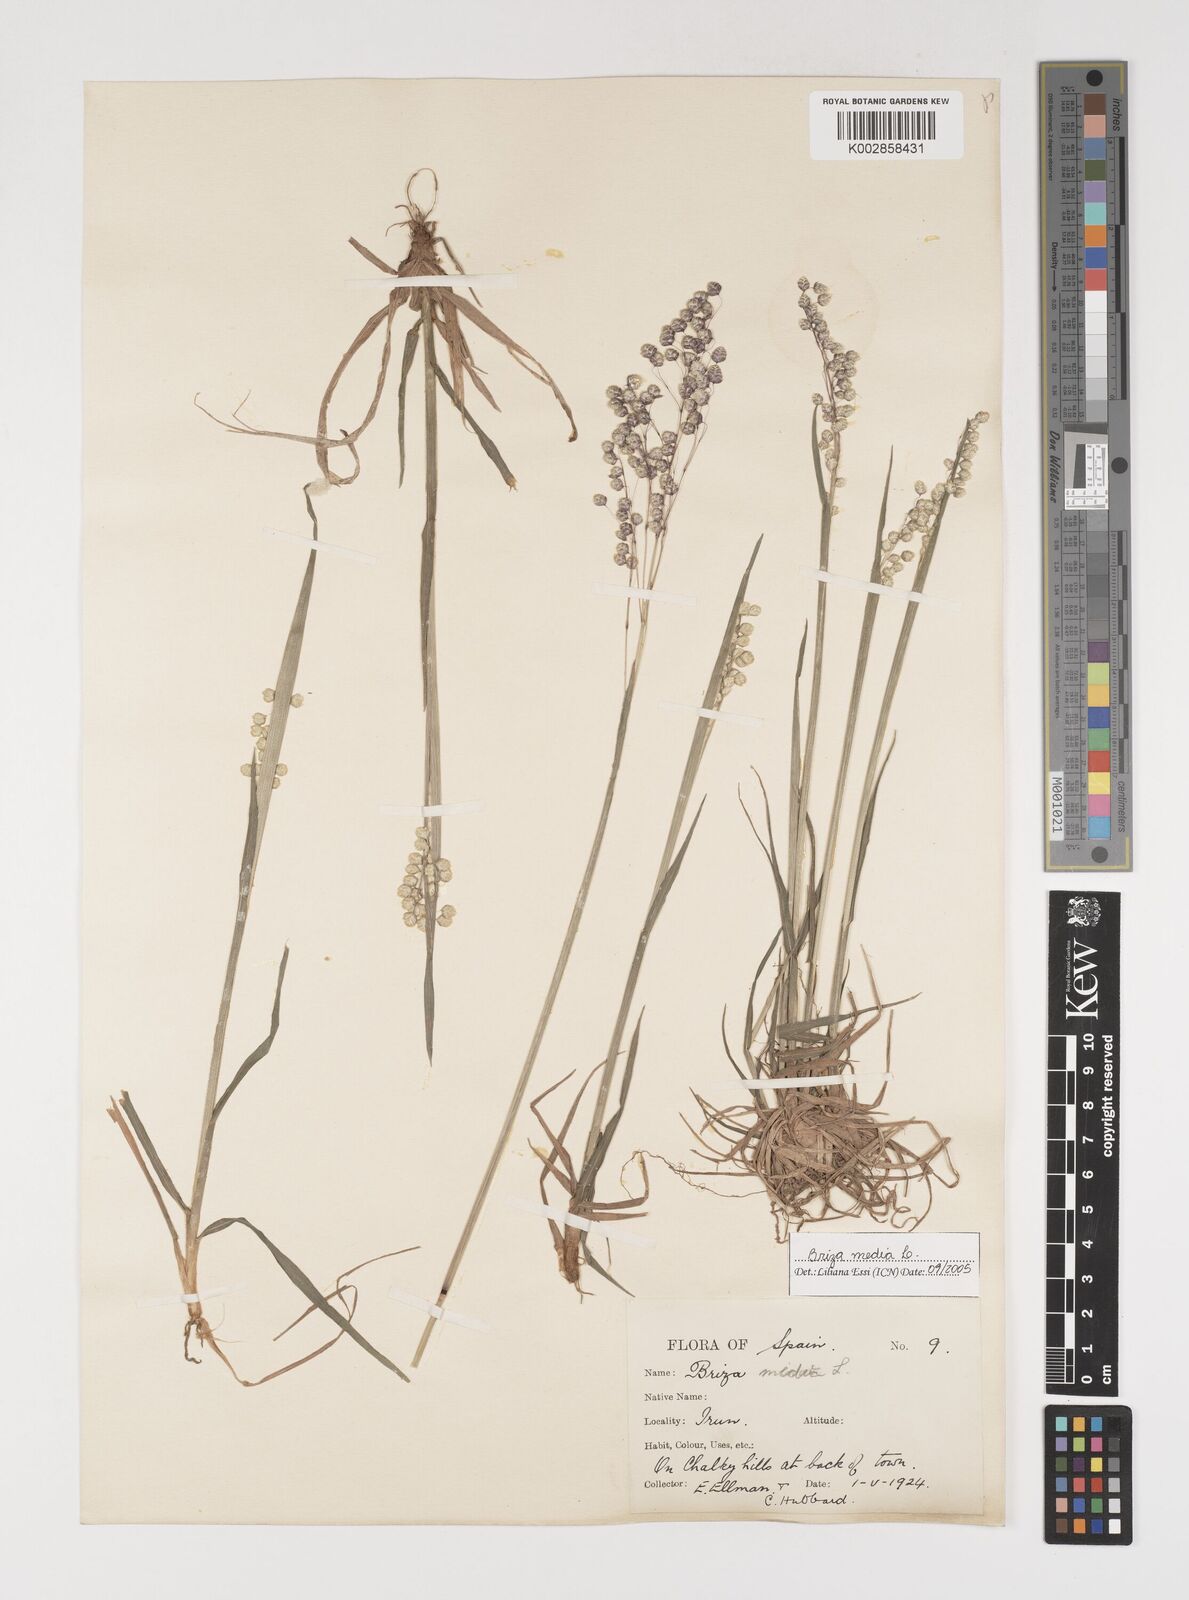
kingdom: Plantae
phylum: Tracheophyta
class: Liliopsida
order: Poales
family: Poaceae
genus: Briza
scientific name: Briza media
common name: Quaking grass
